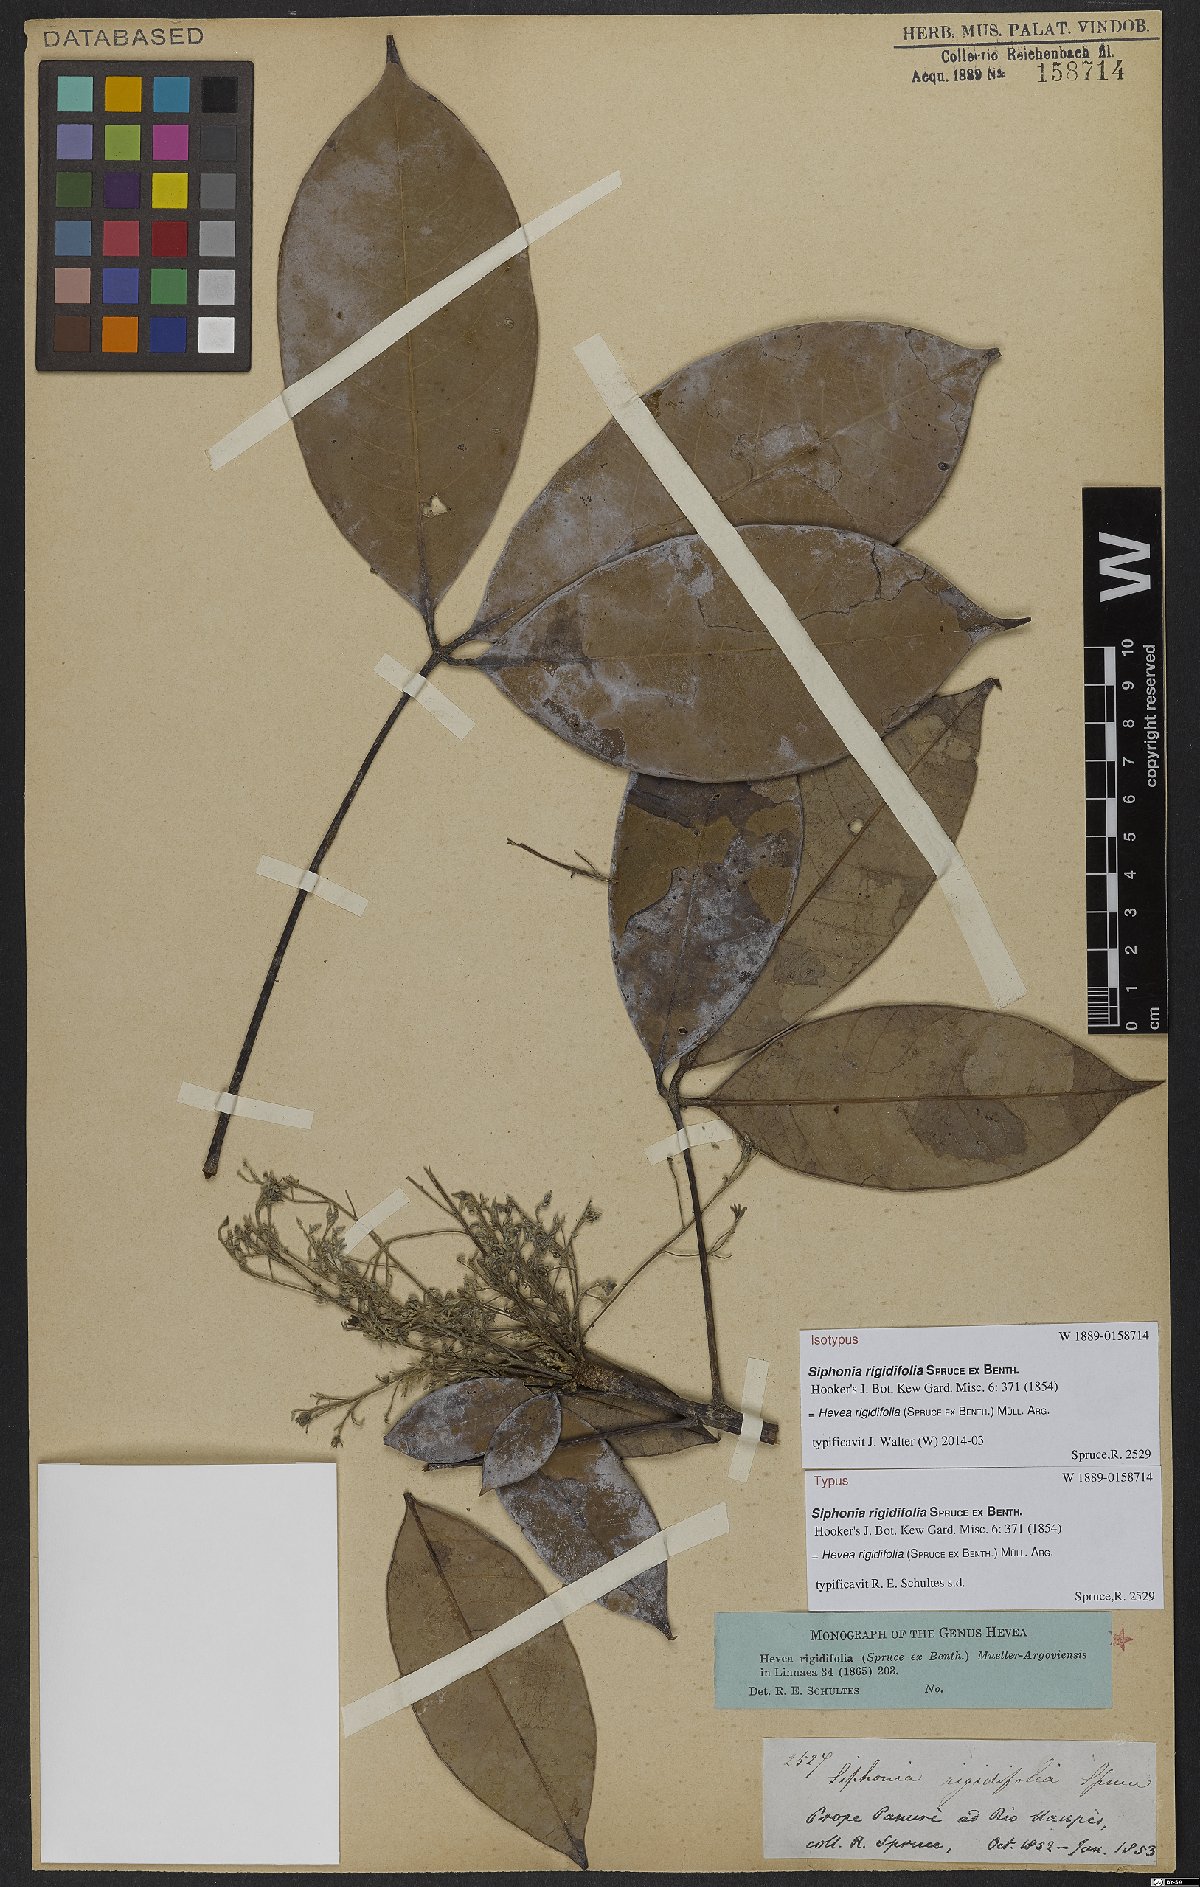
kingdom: Plantae
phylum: Tracheophyta
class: Magnoliopsida
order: Malpighiales
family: Euphorbiaceae
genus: Hevea
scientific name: Hevea rigidifolia
